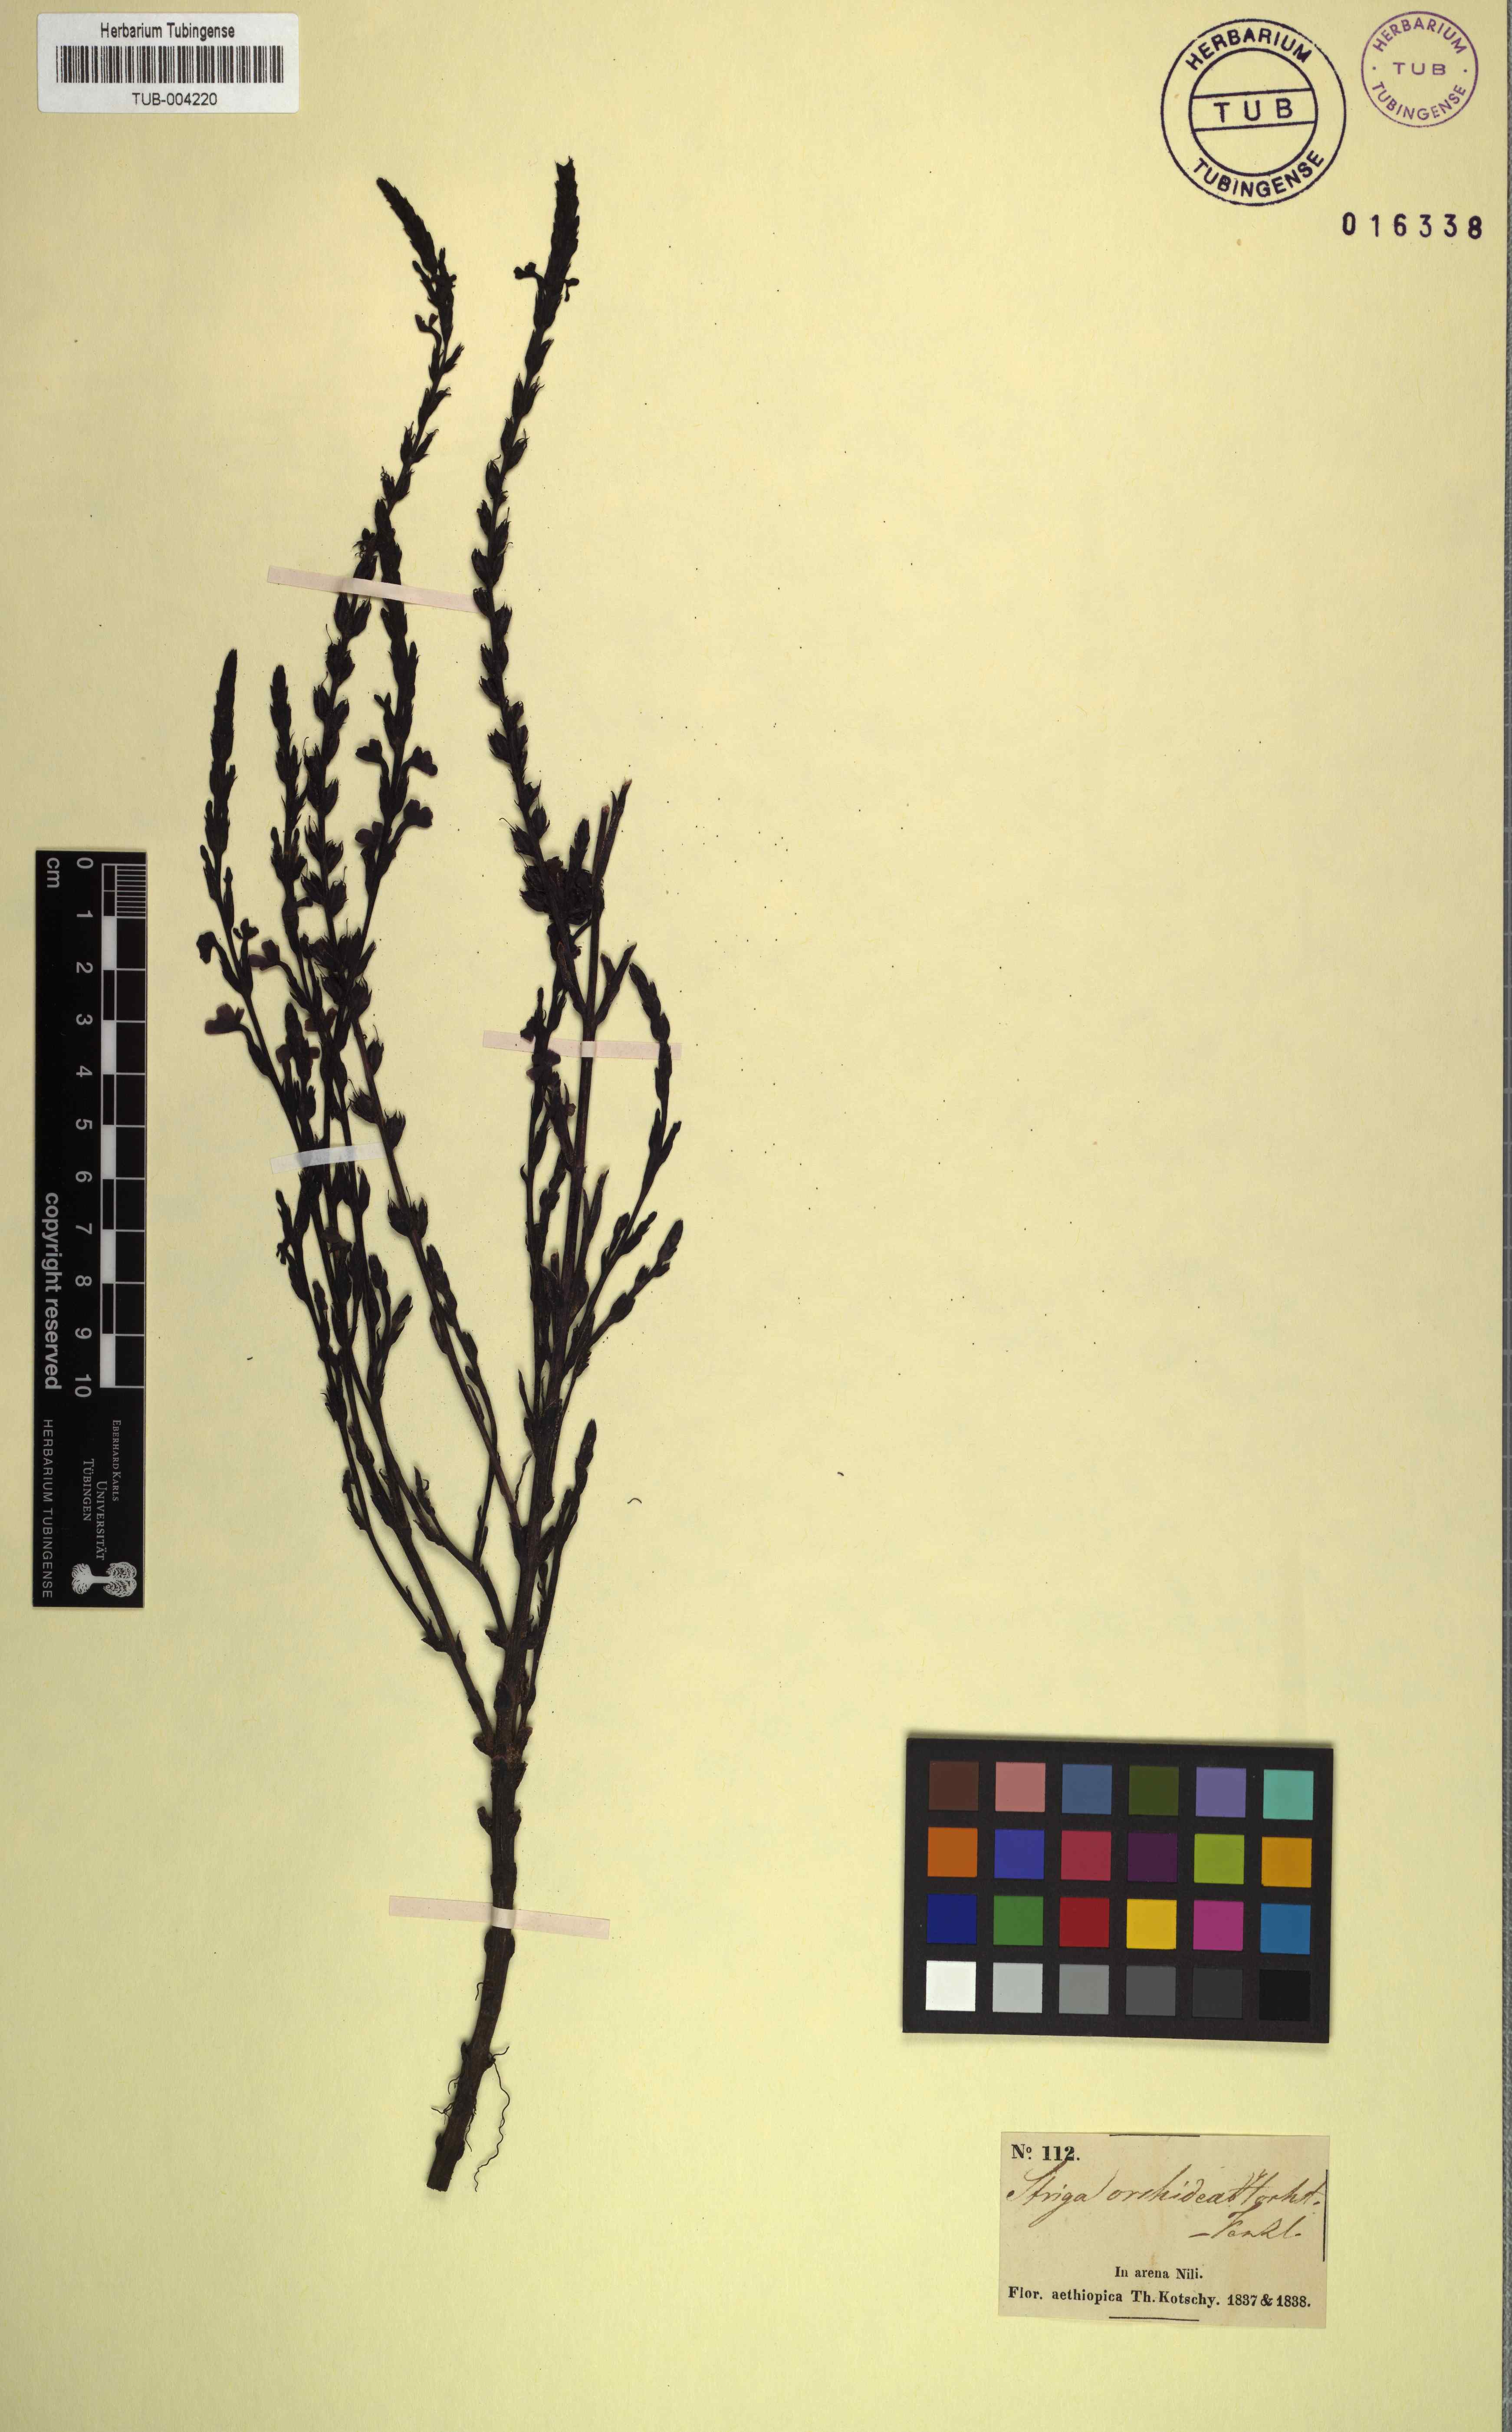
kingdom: Plantae
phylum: Tracheophyta
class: Magnoliopsida
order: Lamiales
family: Orobanchaceae
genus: Striga
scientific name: Striga barthlottii
